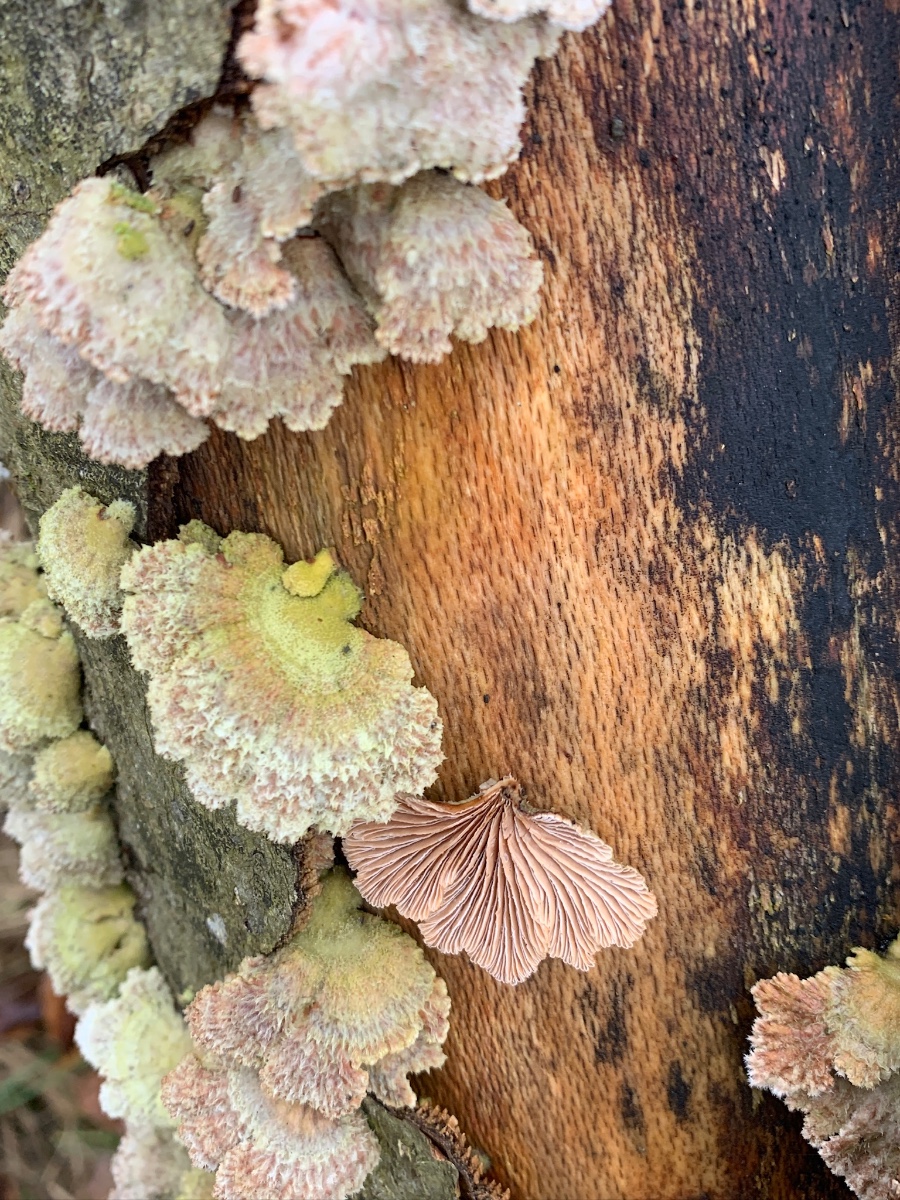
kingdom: Fungi
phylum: Basidiomycota
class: Agaricomycetes
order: Agaricales
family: Schizophyllaceae
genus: Schizophyllum
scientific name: Schizophyllum commune
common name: kløvblad
